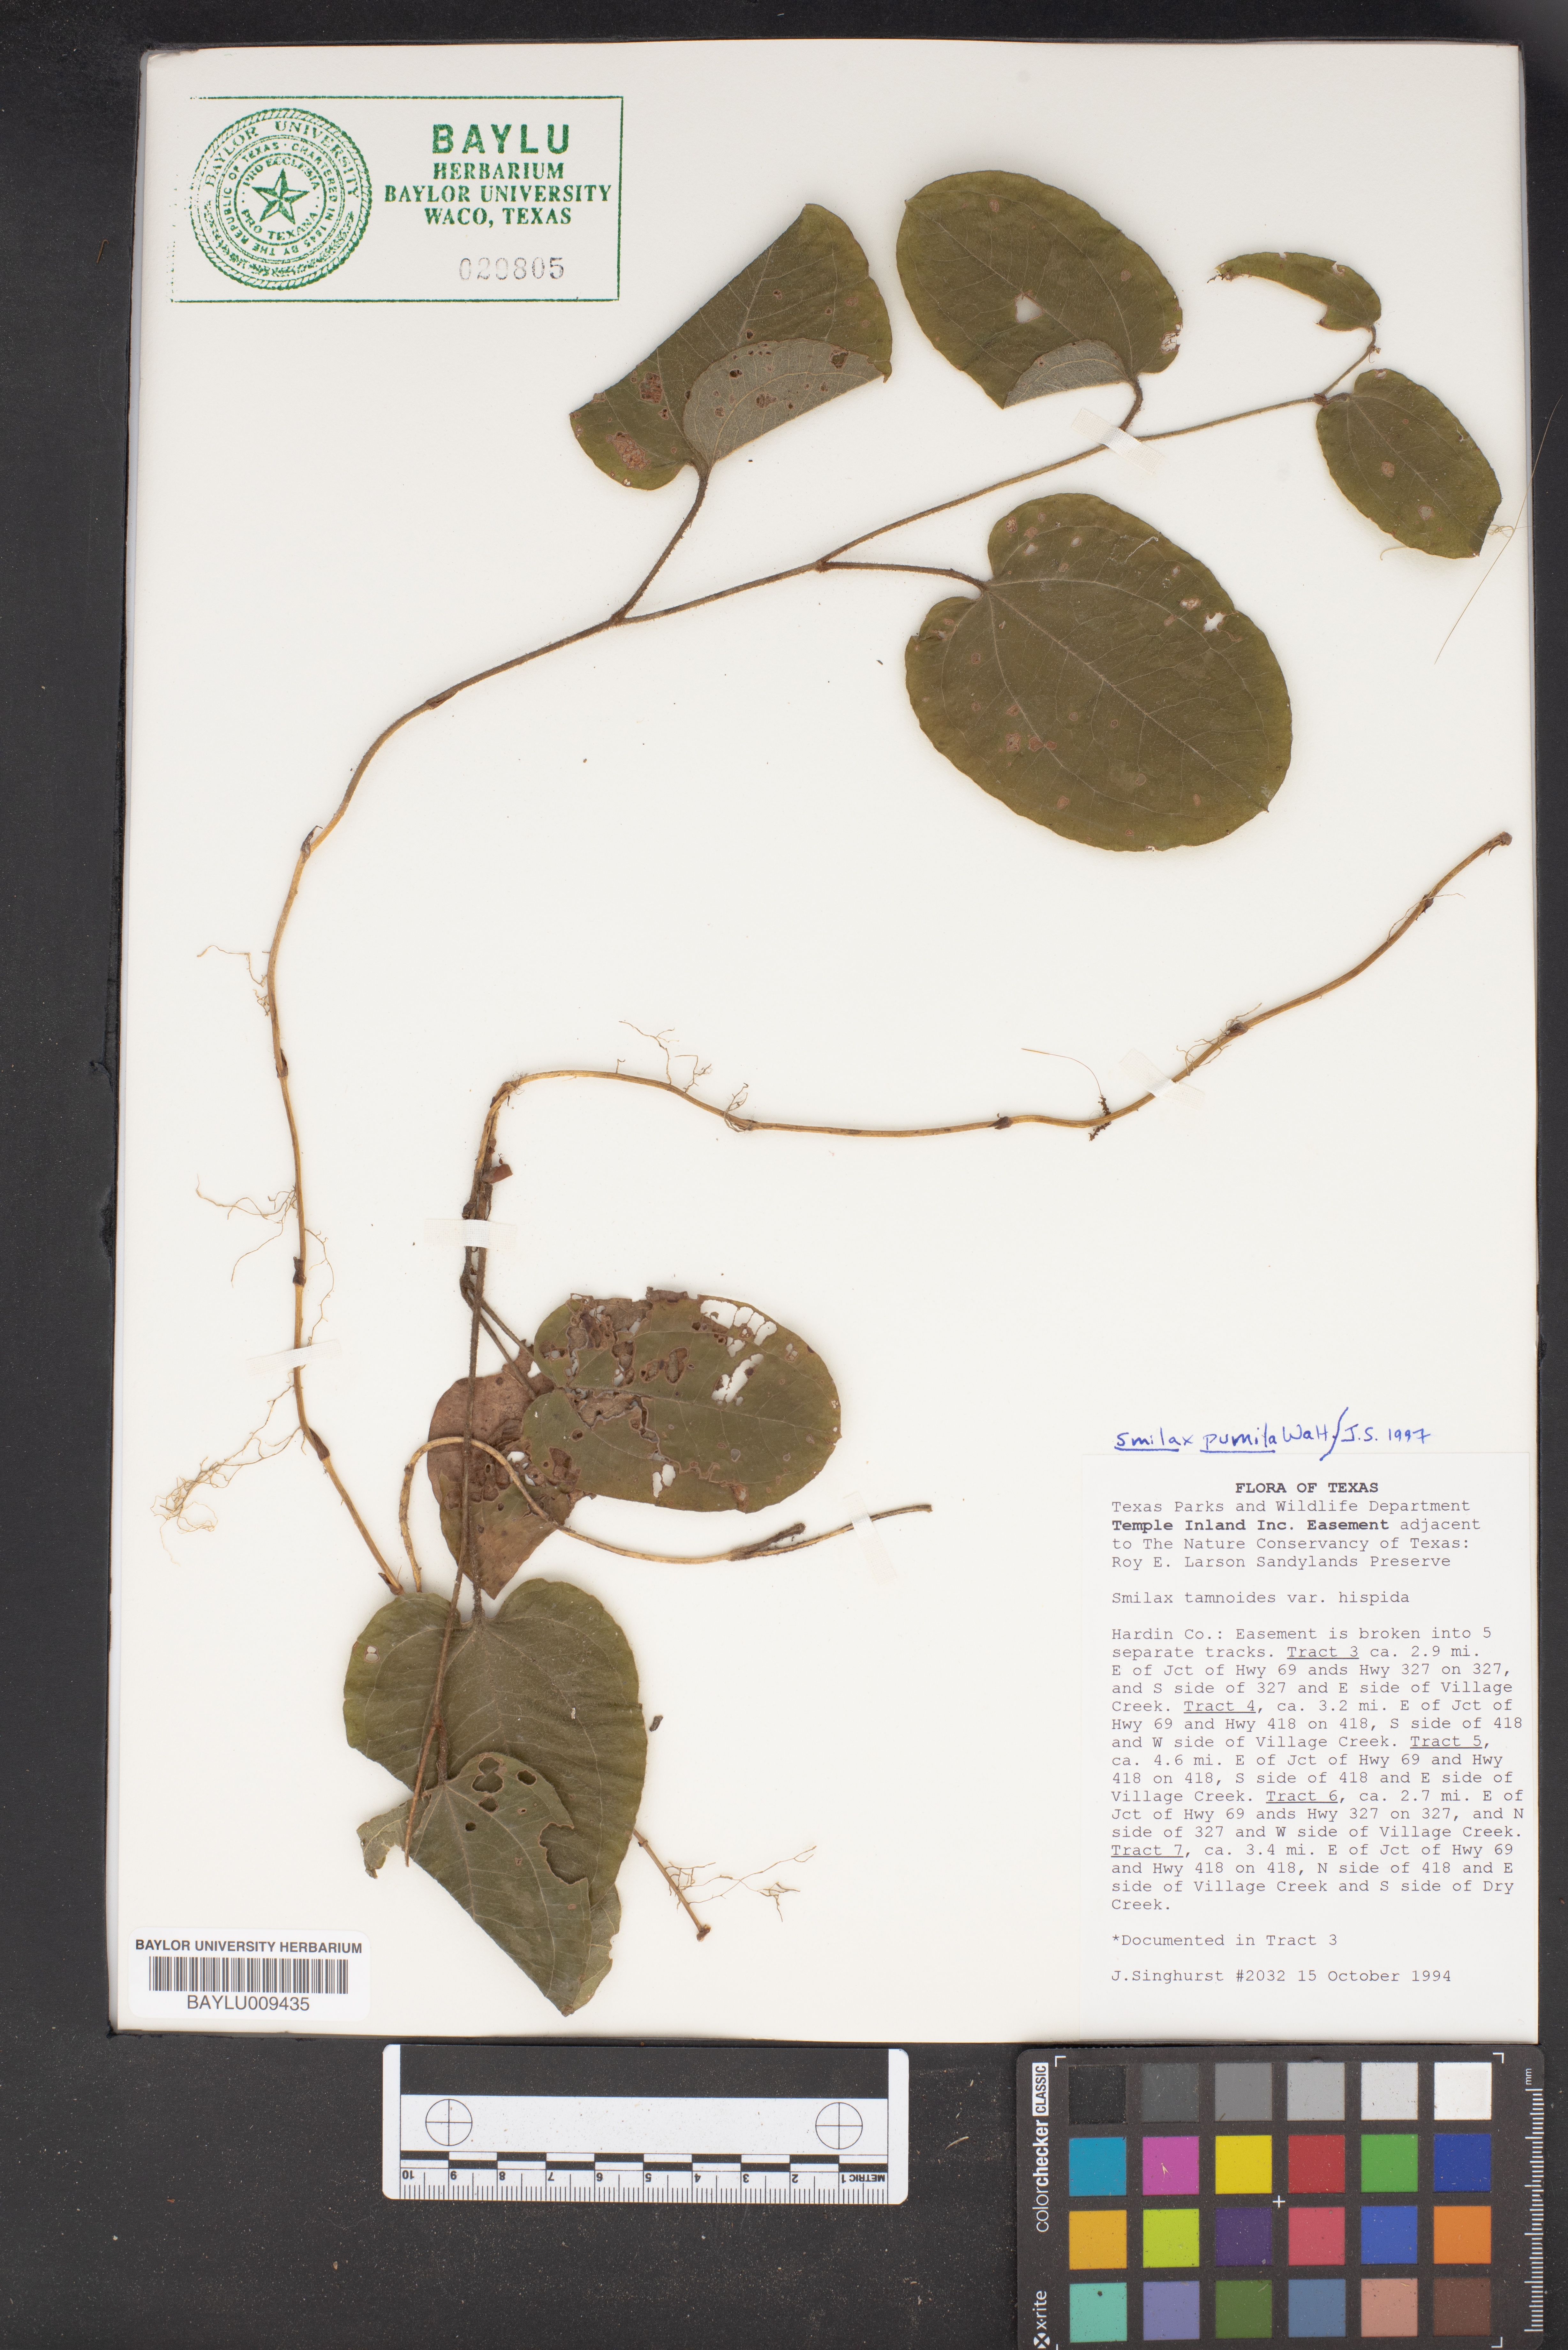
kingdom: Plantae
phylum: Tracheophyta
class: Liliopsida
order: Liliales
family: Smilacaceae
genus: Smilax
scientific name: Smilax tamnoides
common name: Hellfetter
